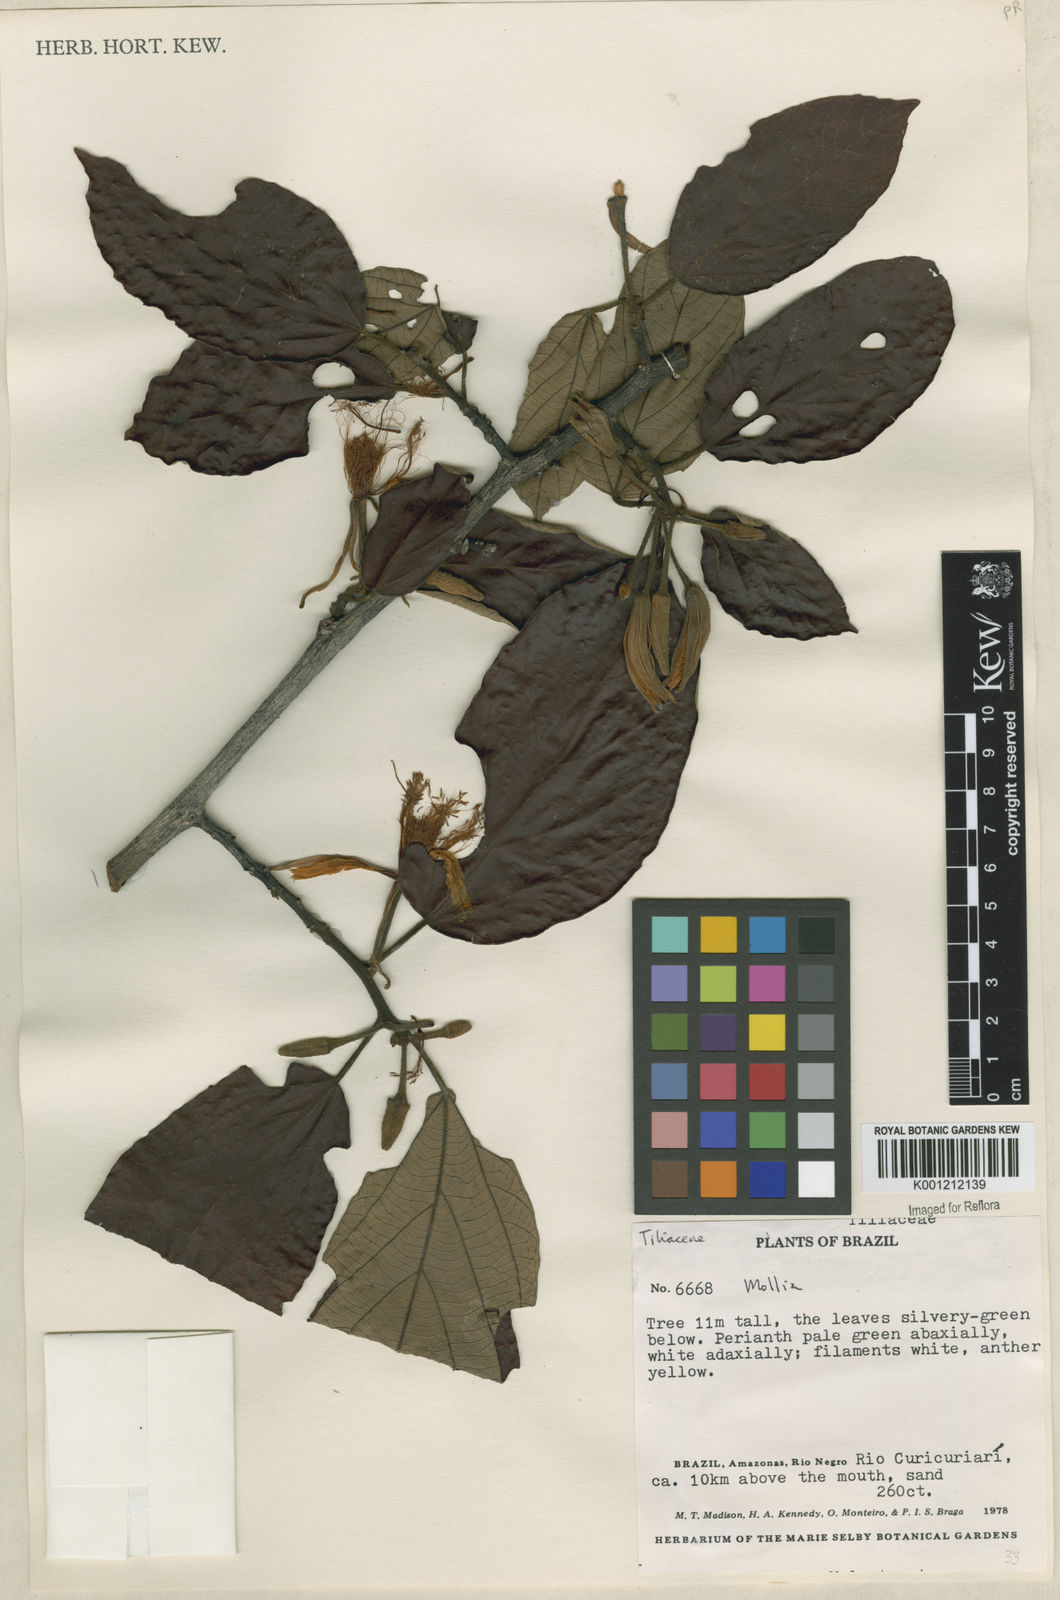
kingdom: Plantae
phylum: Tracheophyta
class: Magnoliopsida
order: Malvales
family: Malvaceae
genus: Mollia
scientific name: Mollia tomentosa
